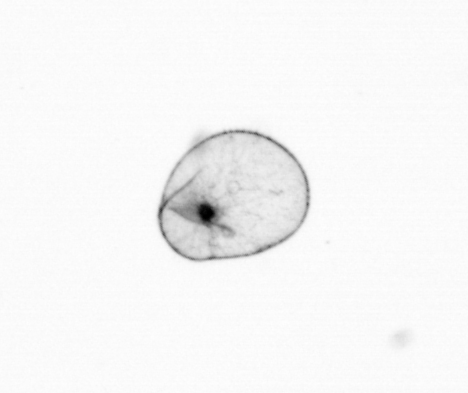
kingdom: Chromista
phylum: Myzozoa
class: Dinophyceae
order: Noctilucales
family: Noctilucaceae
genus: Noctiluca
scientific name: Noctiluca scintillans
